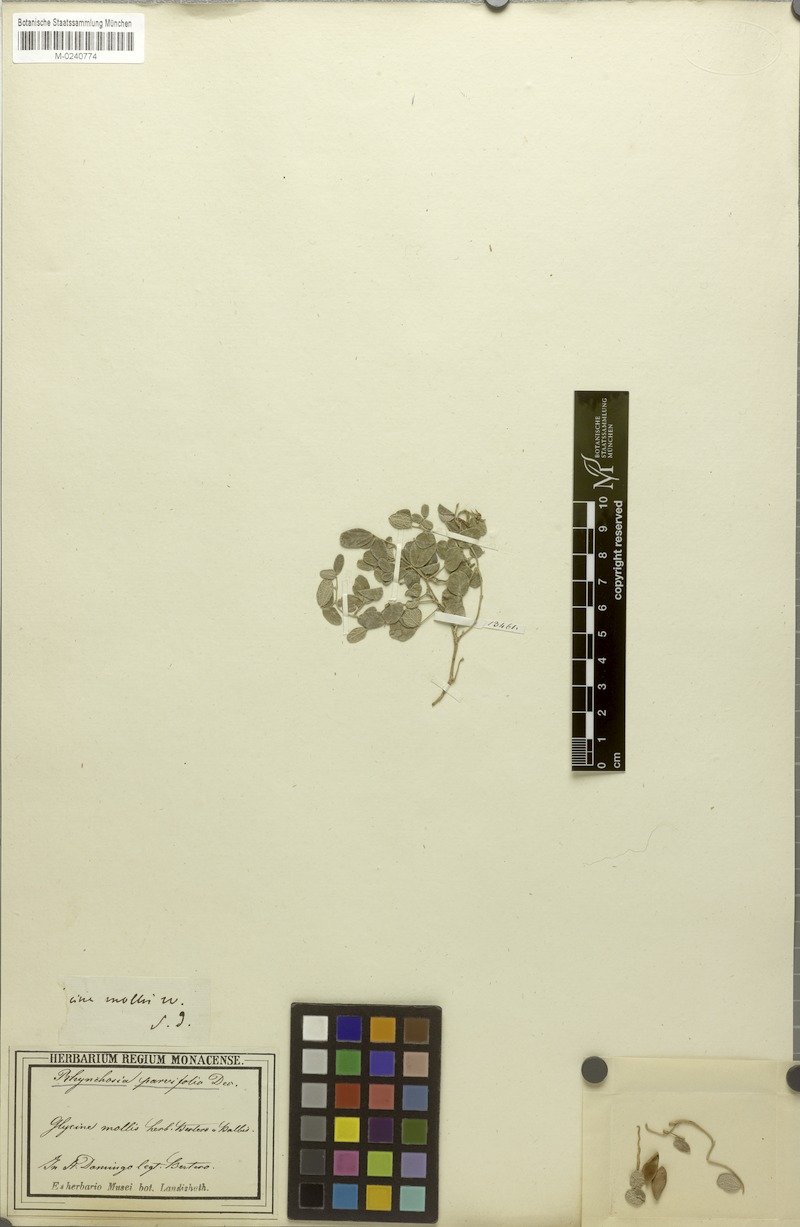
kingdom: Plantae
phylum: Tracheophyta
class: Magnoliopsida
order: Fabales
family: Fabaceae
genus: Rhynchosia
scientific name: Rhynchosia parvifolia
